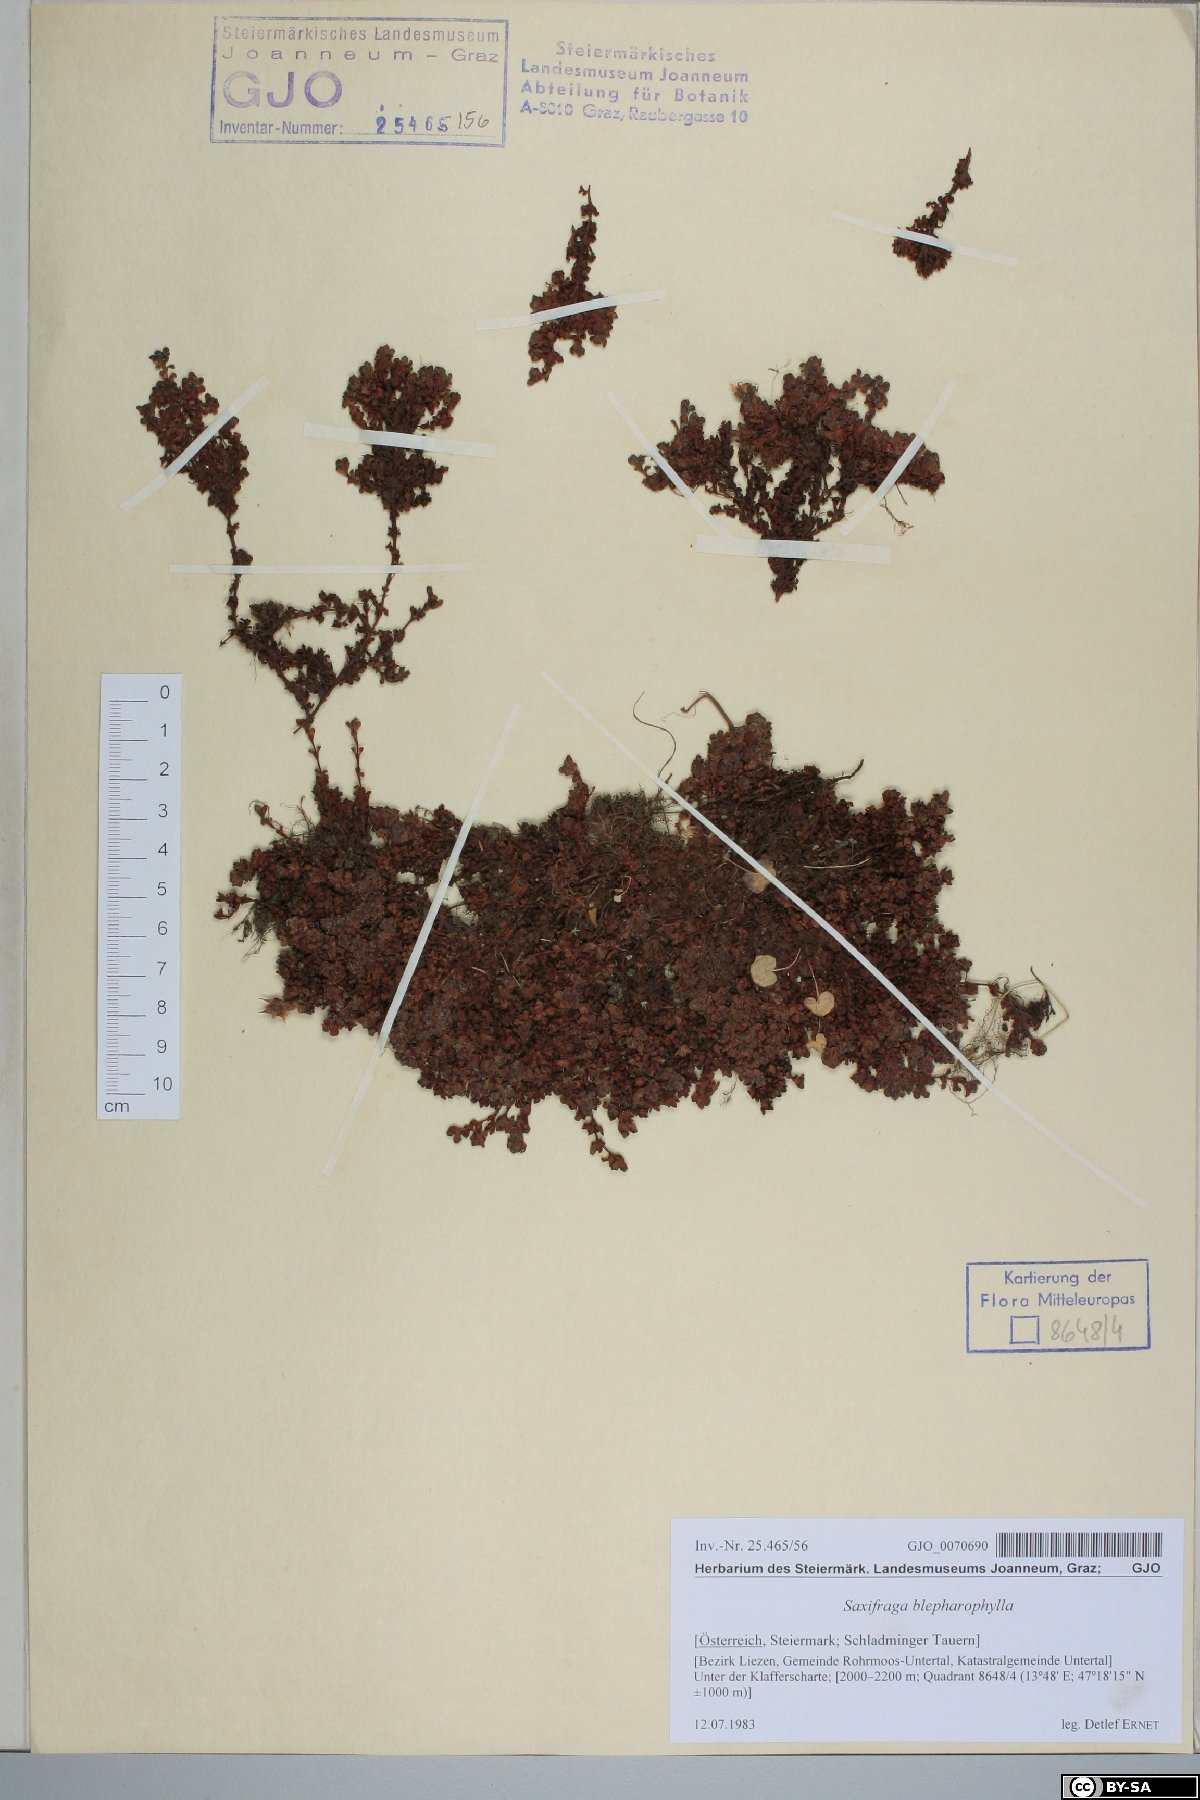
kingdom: Plantae
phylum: Tracheophyta
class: Magnoliopsida
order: Saxifragales
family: Saxifragaceae
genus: Saxifraga
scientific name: Saxifraga oppositifolia
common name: Purple saxifrage
